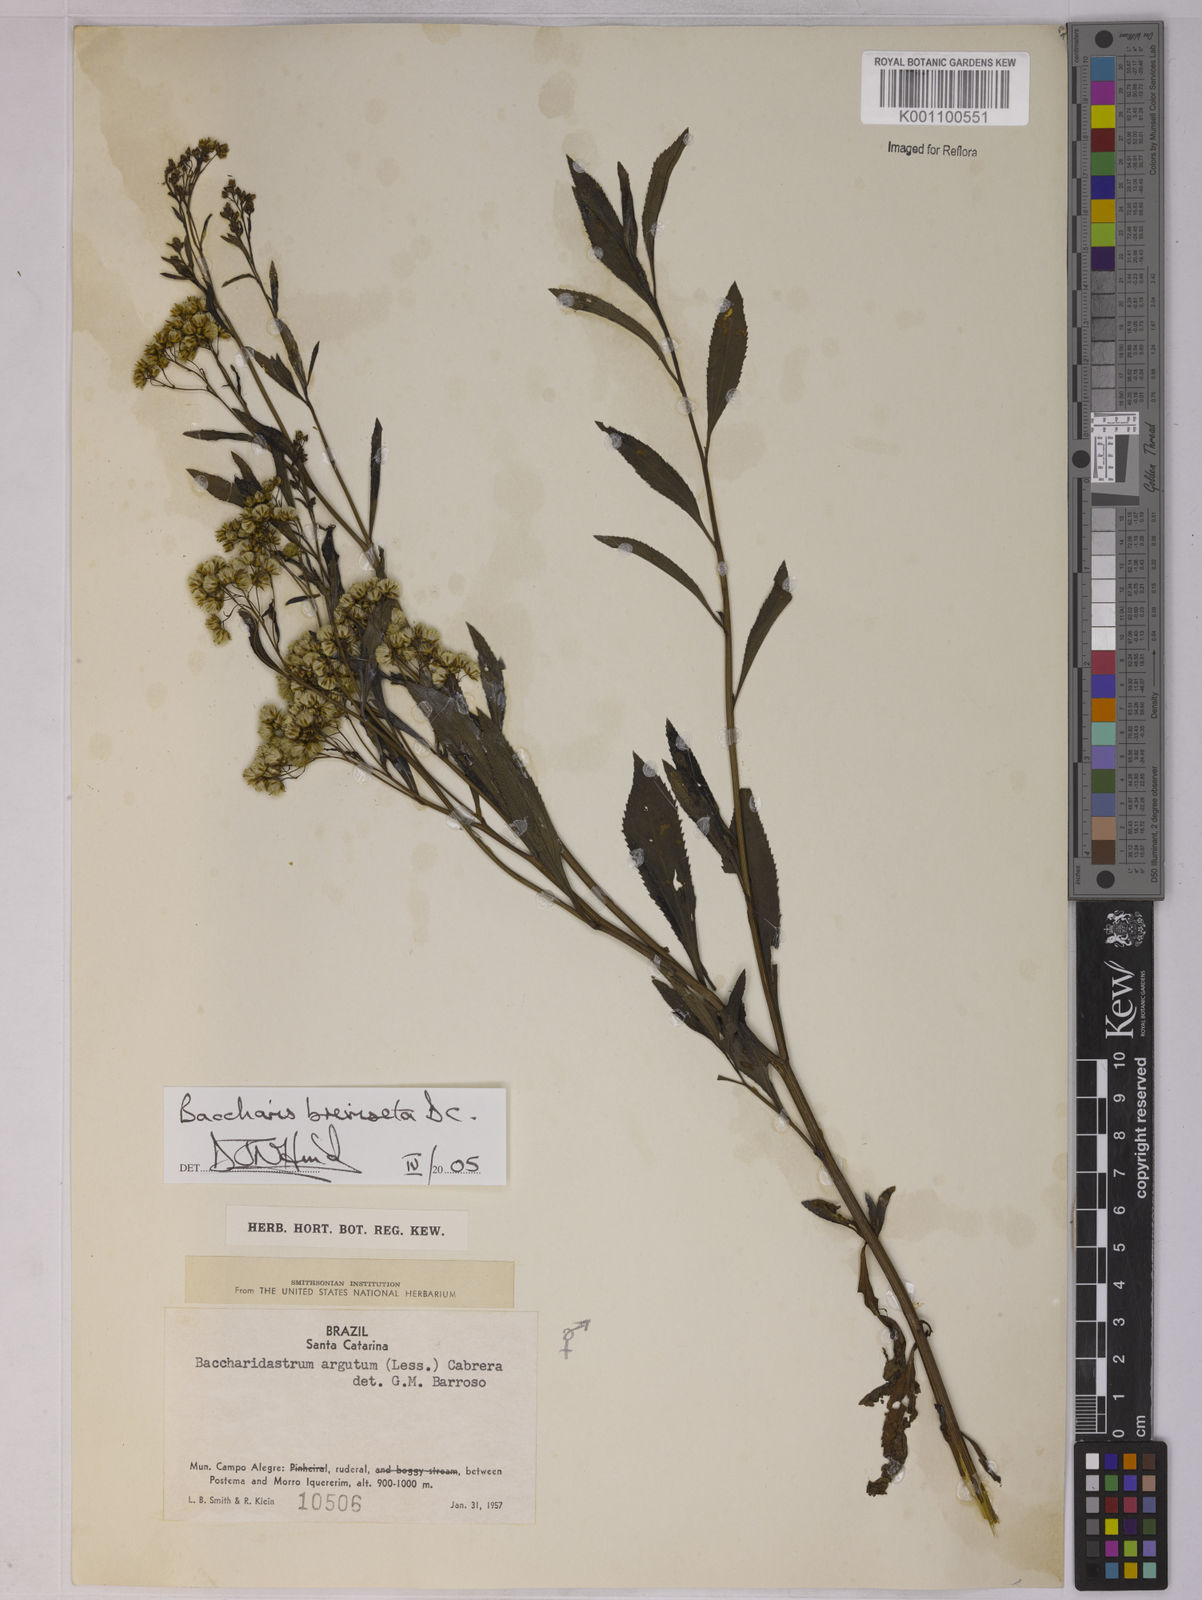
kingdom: Plantae
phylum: Tracheophyta
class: Magnoliopsida
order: Asterales
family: Asteraceae
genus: Baccharis
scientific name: Baccharis breviseta
